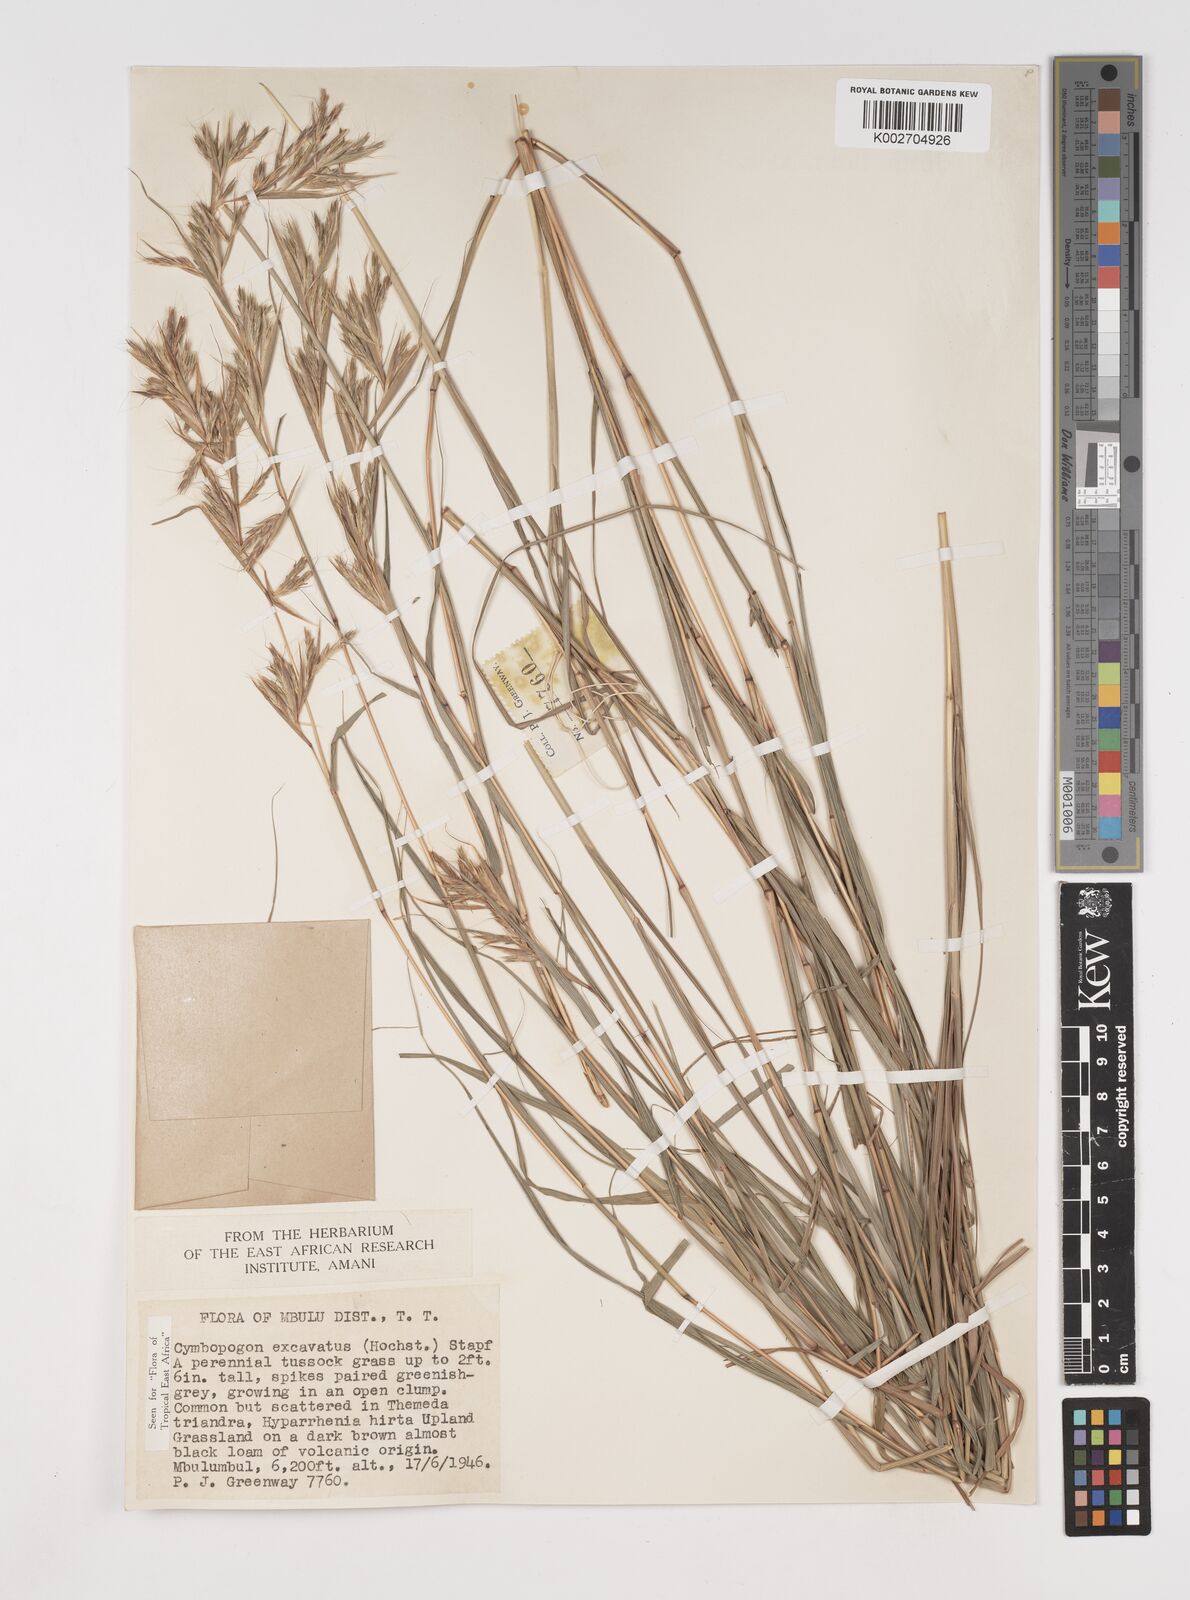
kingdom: Plantae
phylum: Tracheophyta
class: Liliopsida
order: Poales
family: Poaceae
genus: Cymbopogon
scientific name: Cymbopogon caesius
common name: Kachi grass
